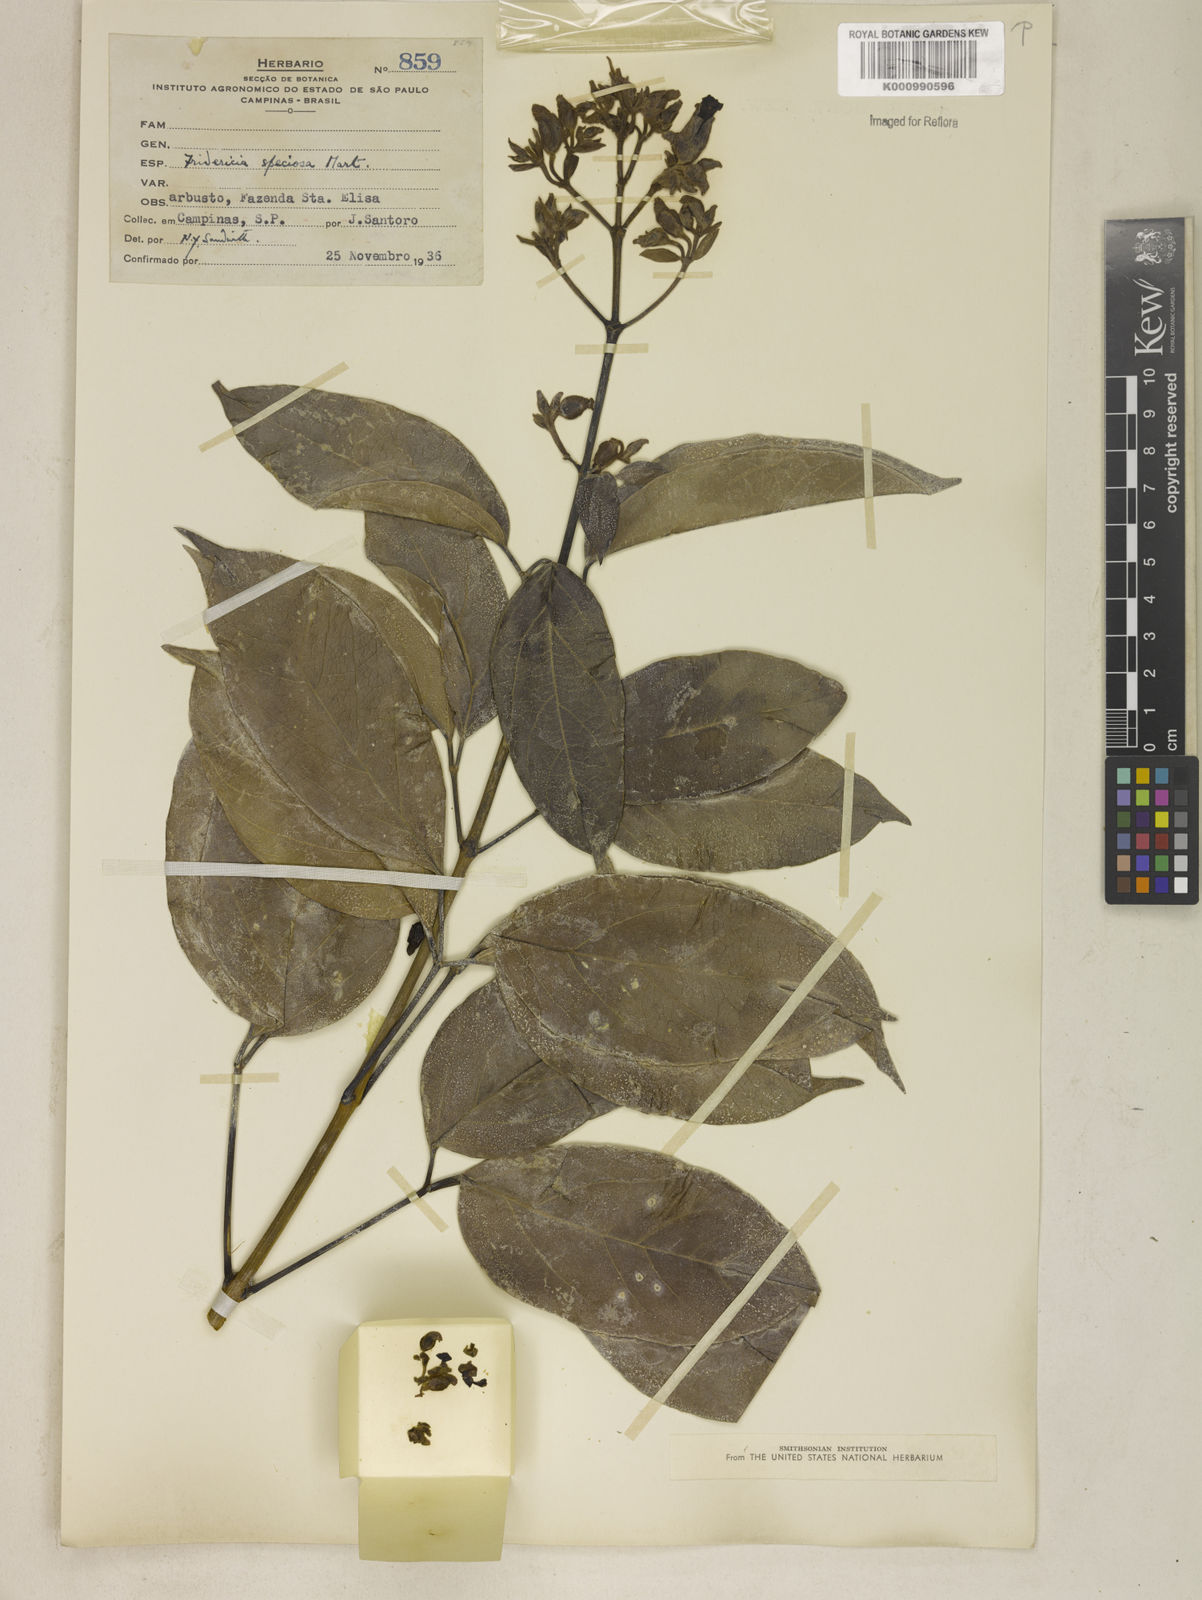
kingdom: Plantae
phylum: Tracheophyta
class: Magnoliopsida
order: Lamiales
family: Bignoniaceae
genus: Fridericia
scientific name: Fridericia speciosa
